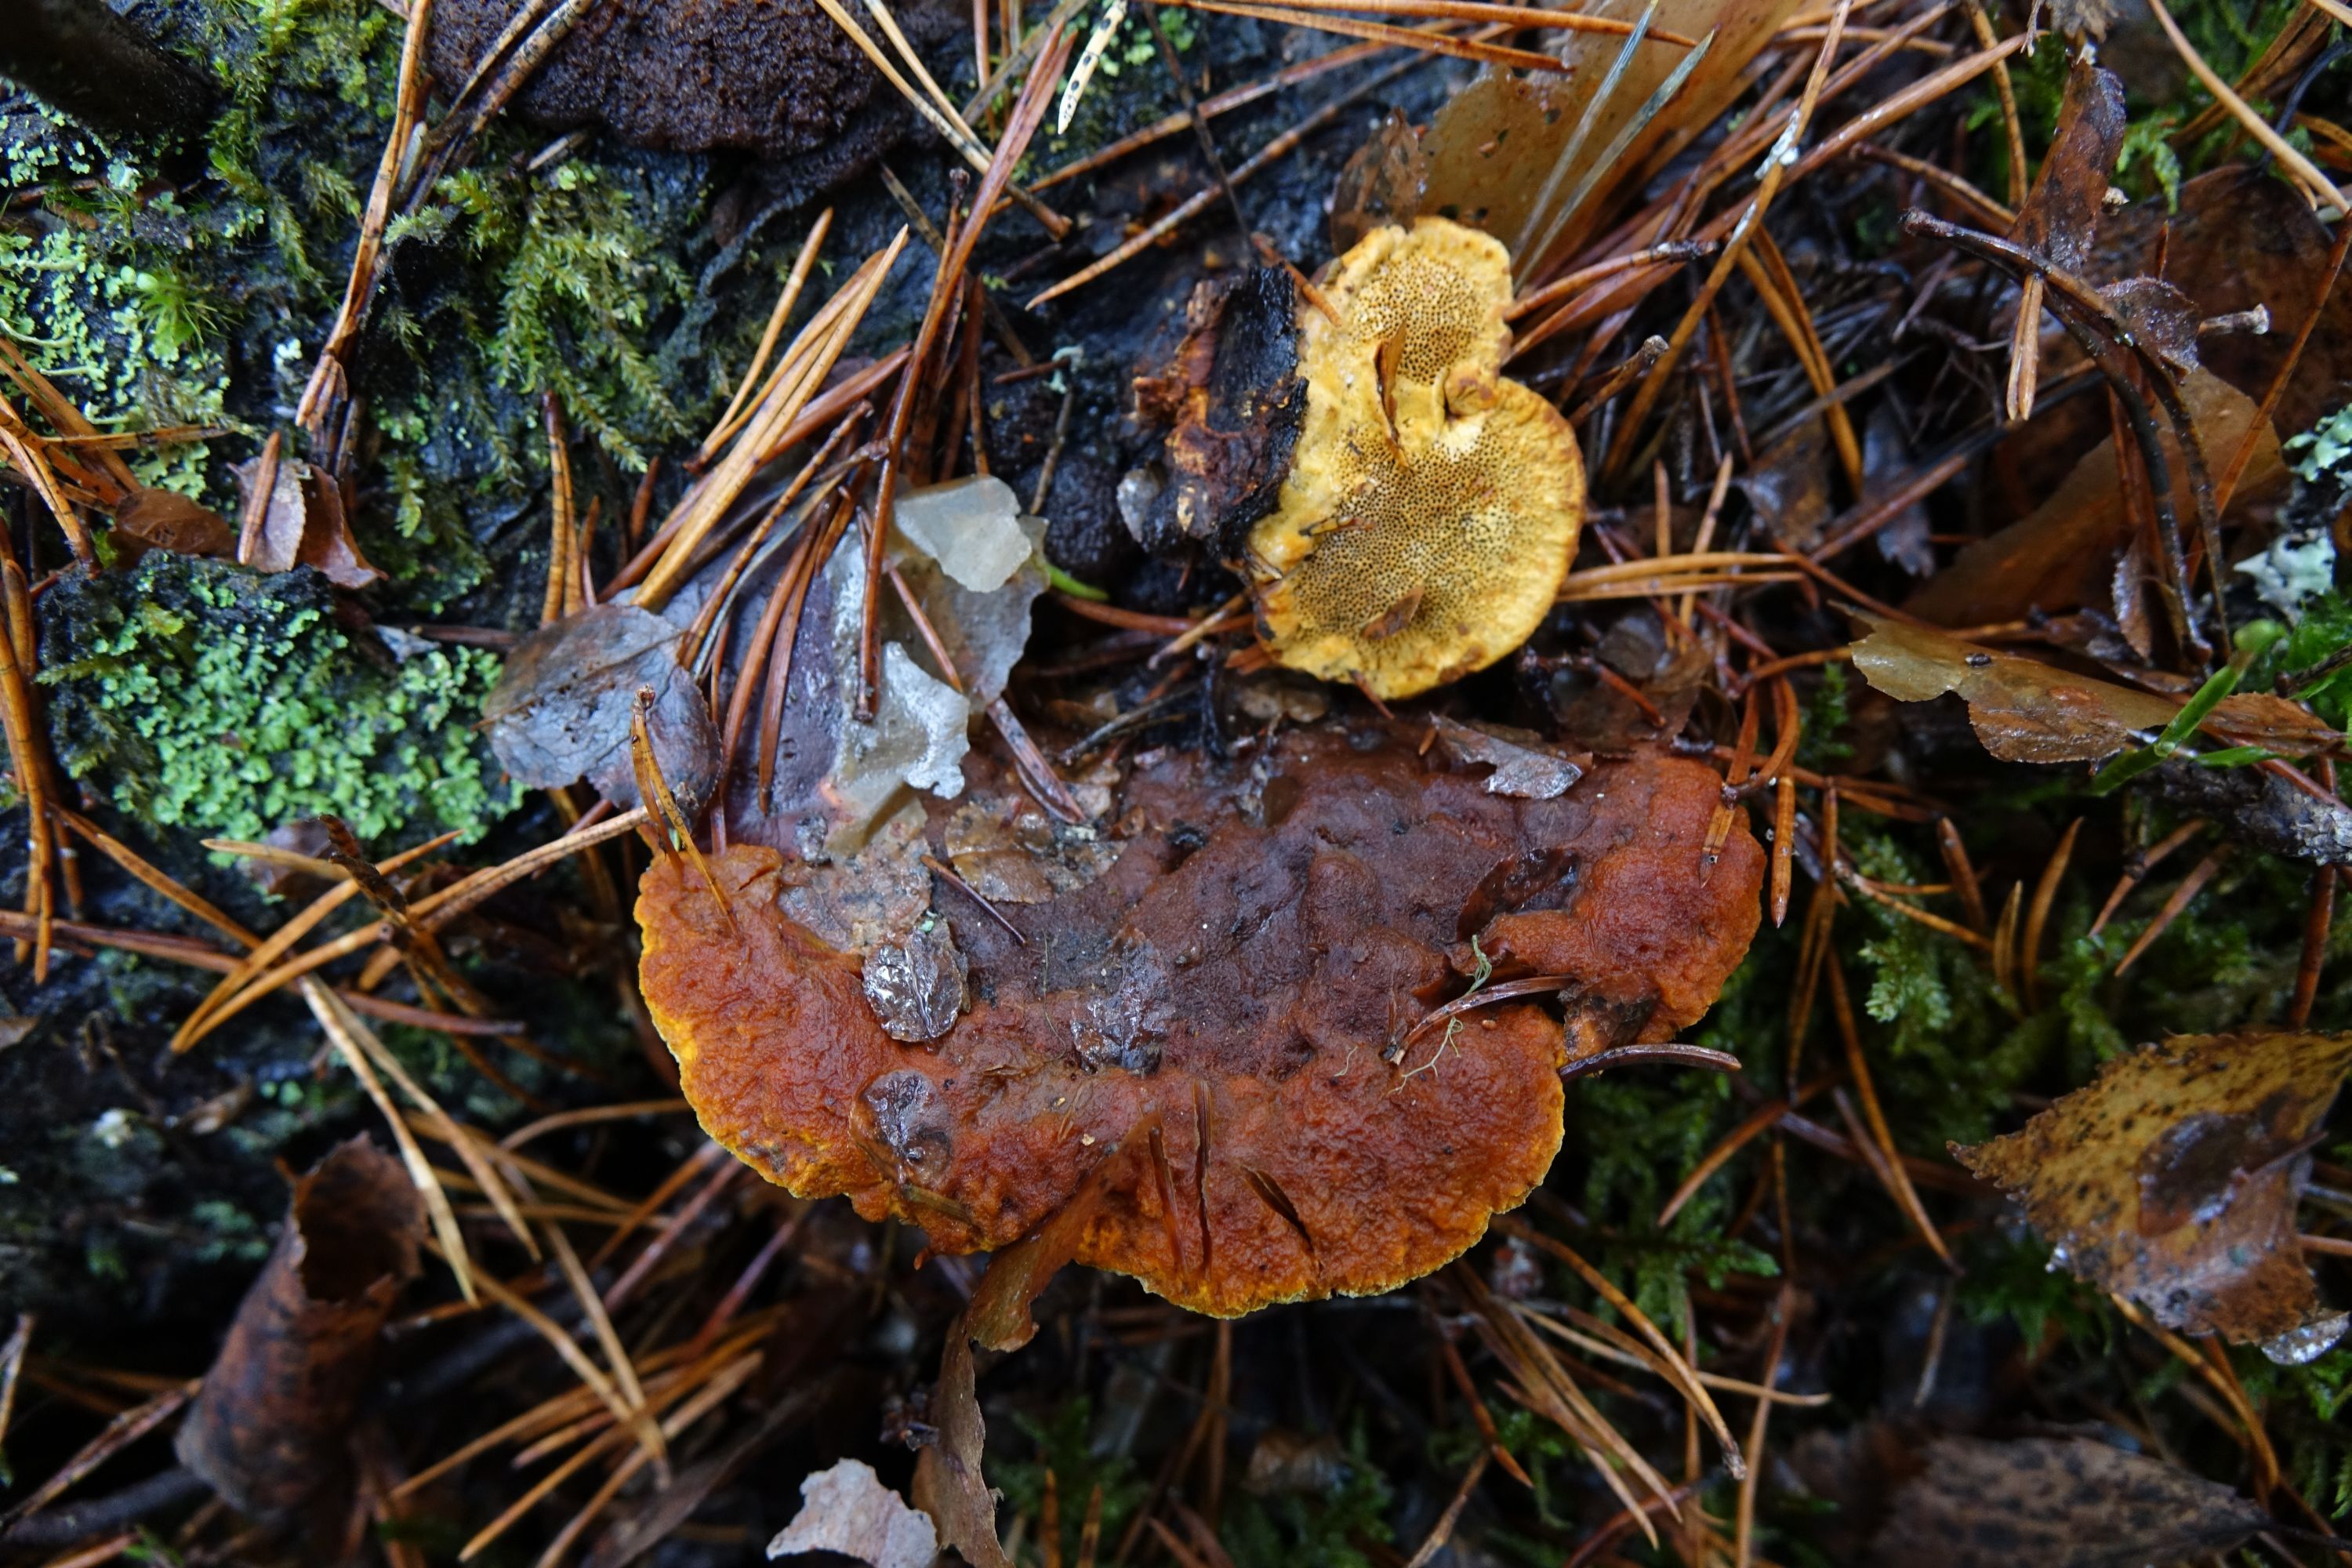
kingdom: Fungi
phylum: Basidiomycota
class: Agaricomycetes
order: Gloeophyllales
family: Gloeophyllaceae
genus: Gloeophyllum
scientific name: Gloeophyllum odoratum
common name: Anise mazegill
